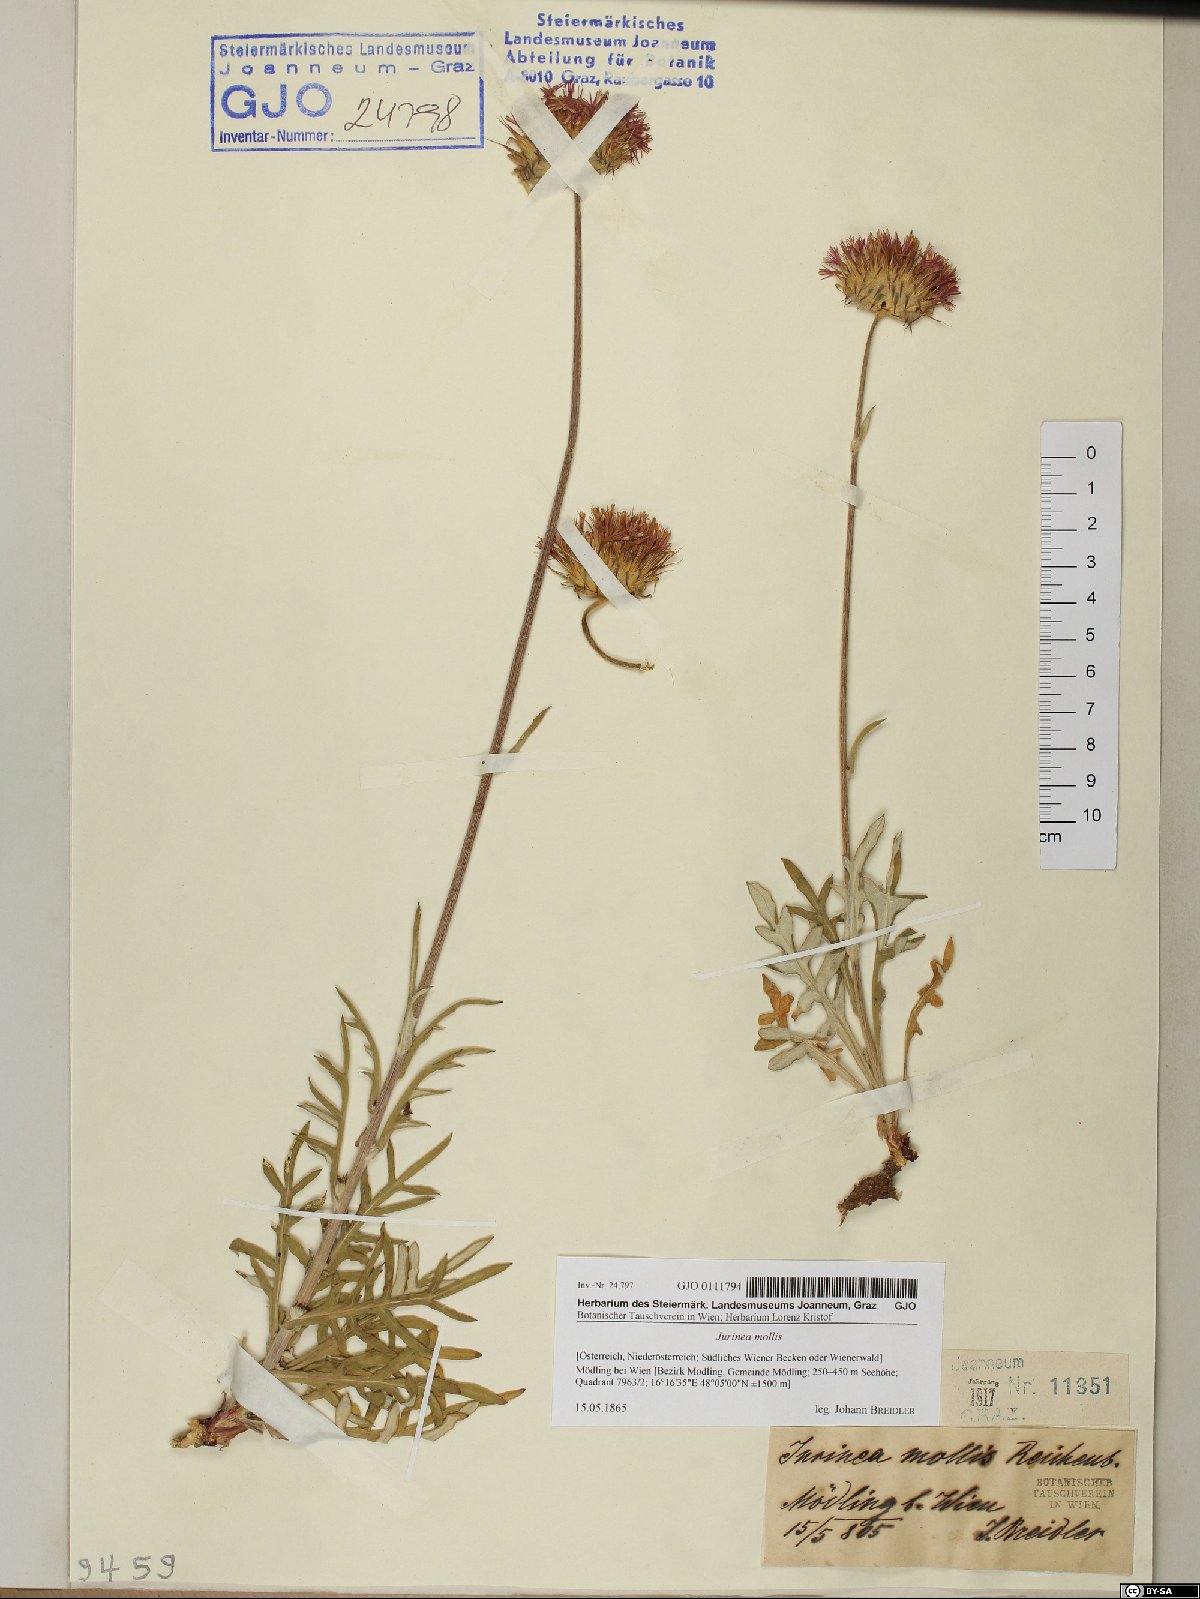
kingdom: Plantae
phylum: Tracheophyta
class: Magnoliopsida
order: Asterales
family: Asteraceae
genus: Jurinea
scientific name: Jurinea mollis
